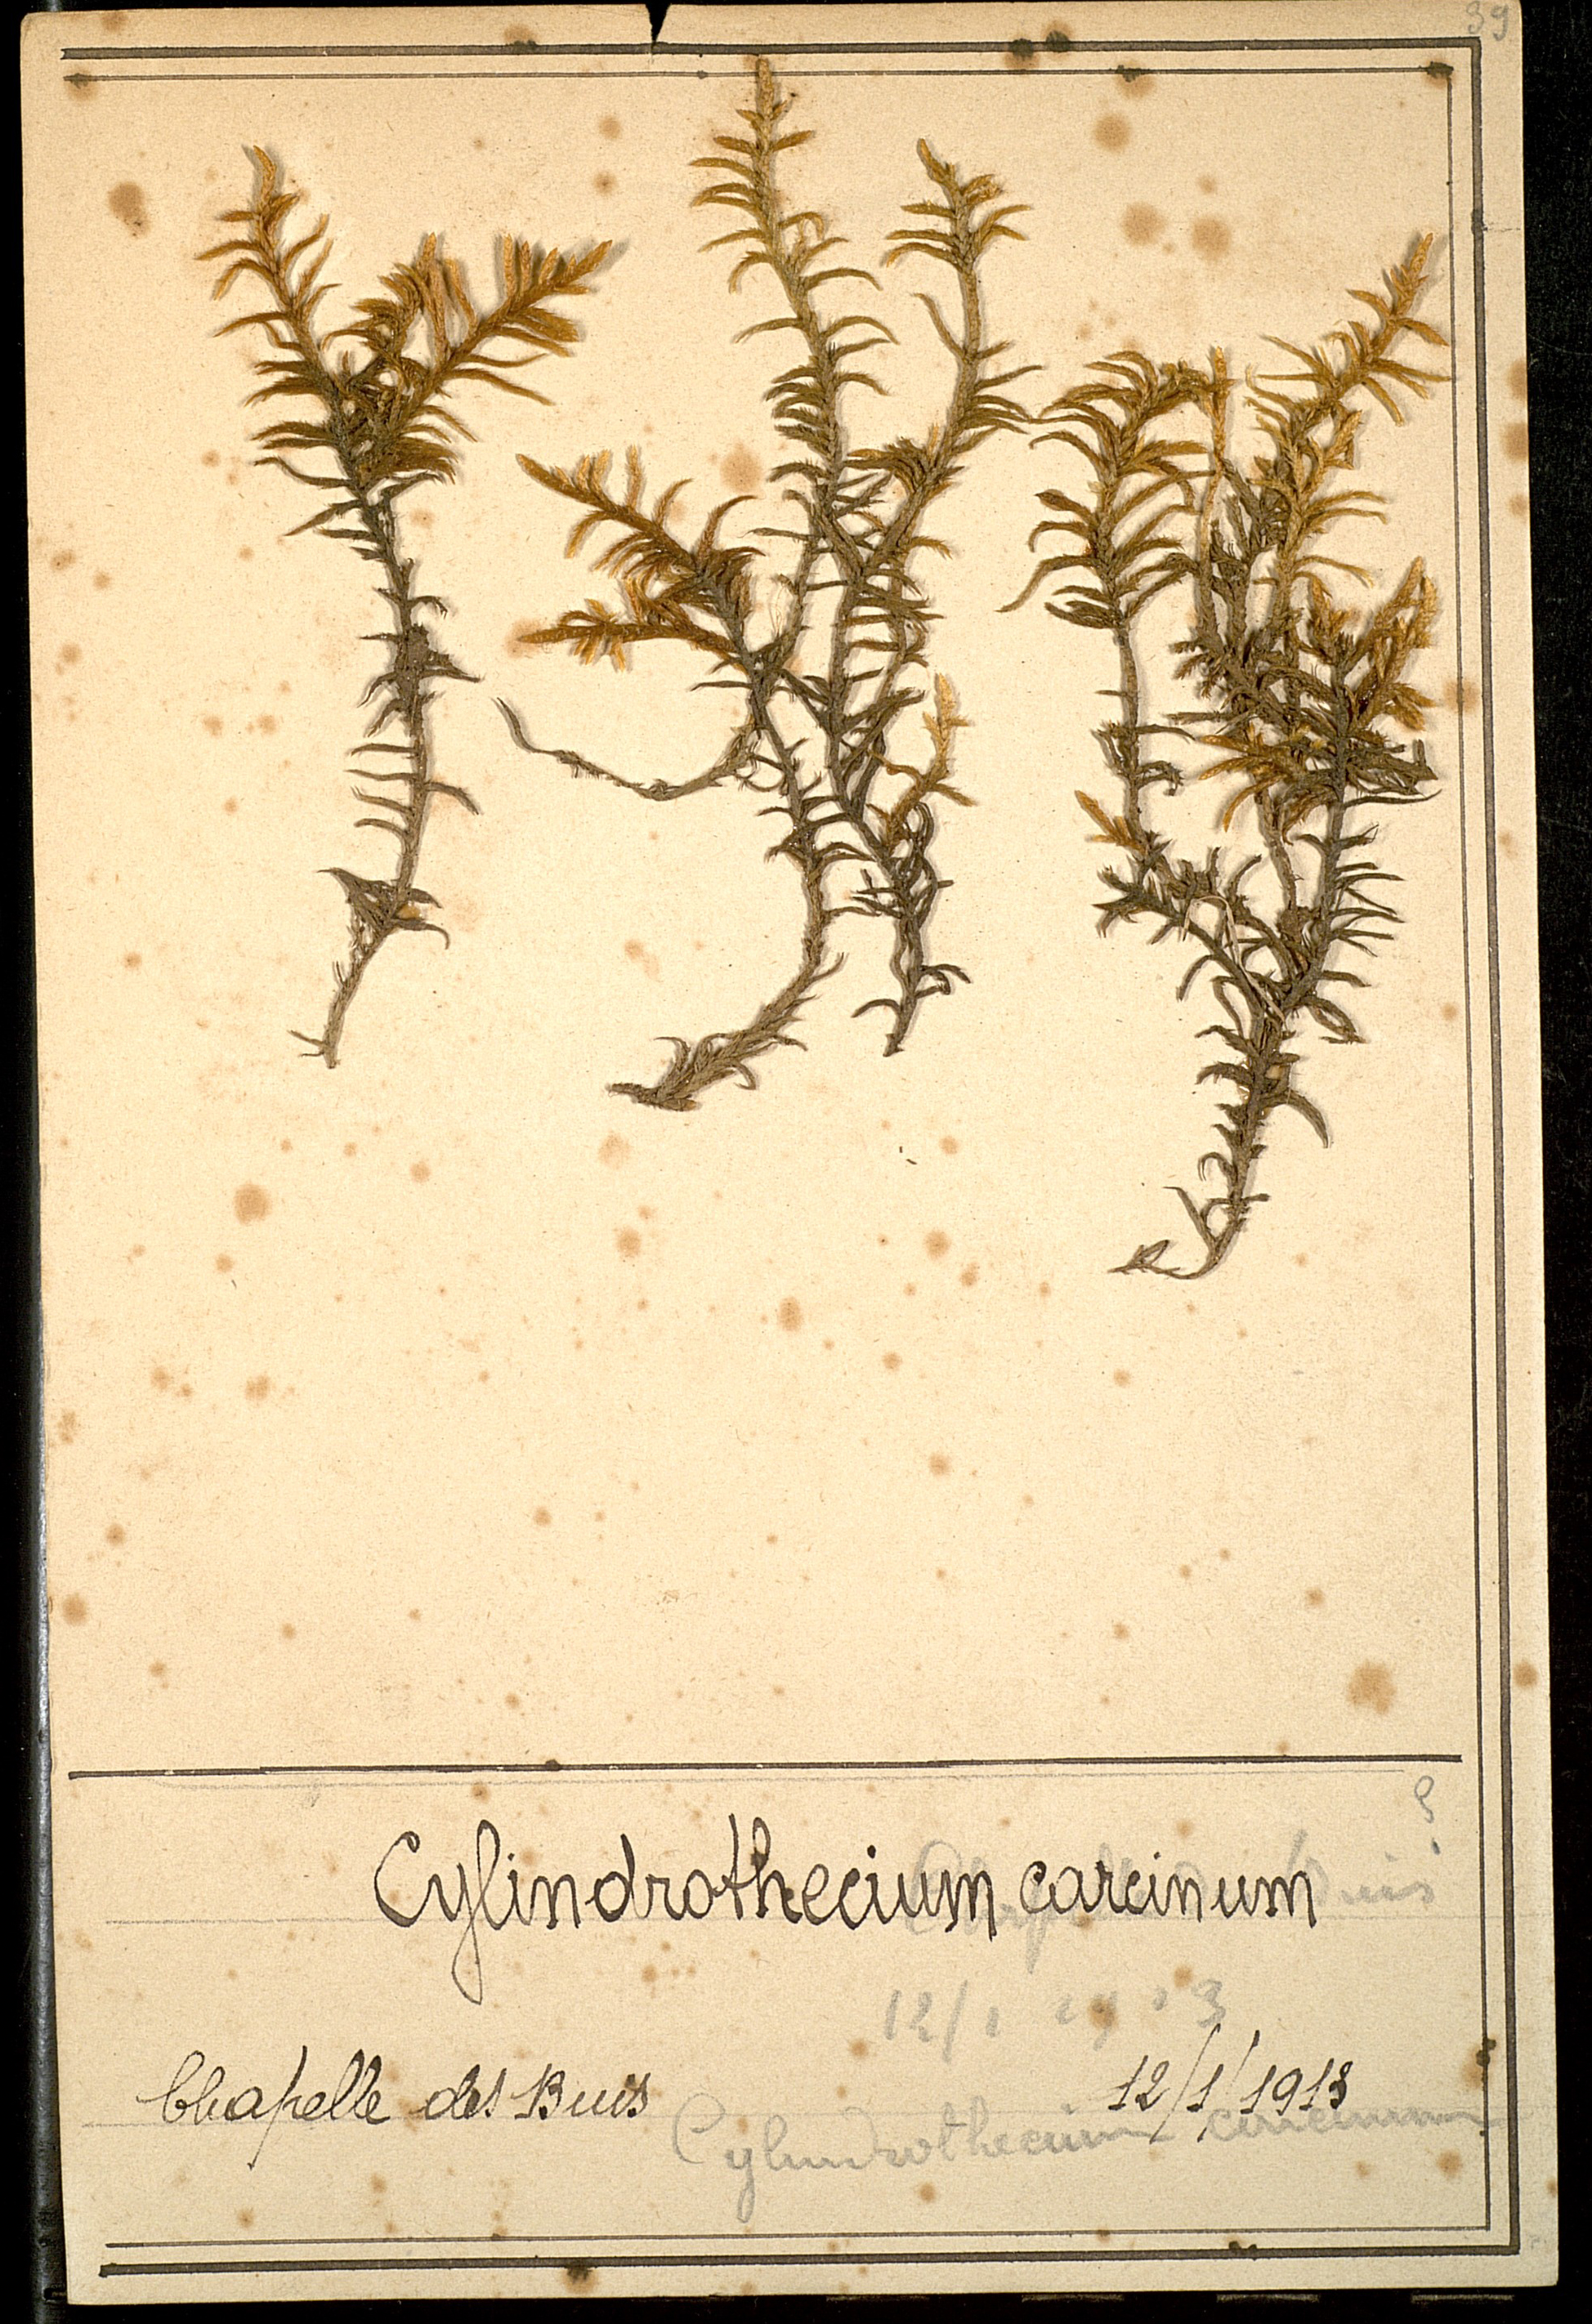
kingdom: Plantae
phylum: Bryophyta
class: Bryopsida
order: Hypnales
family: Entodontaceae
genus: Entodon
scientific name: Entodon concinnus
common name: Montagne's cylinder-moss
